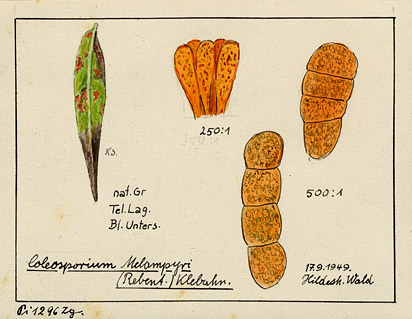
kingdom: Fungi
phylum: Basidiomycota
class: Pucciniomycetes
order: Pucciniales
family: Coleosporiaceae
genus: Coleosporium
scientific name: Coleosporium melampyri
